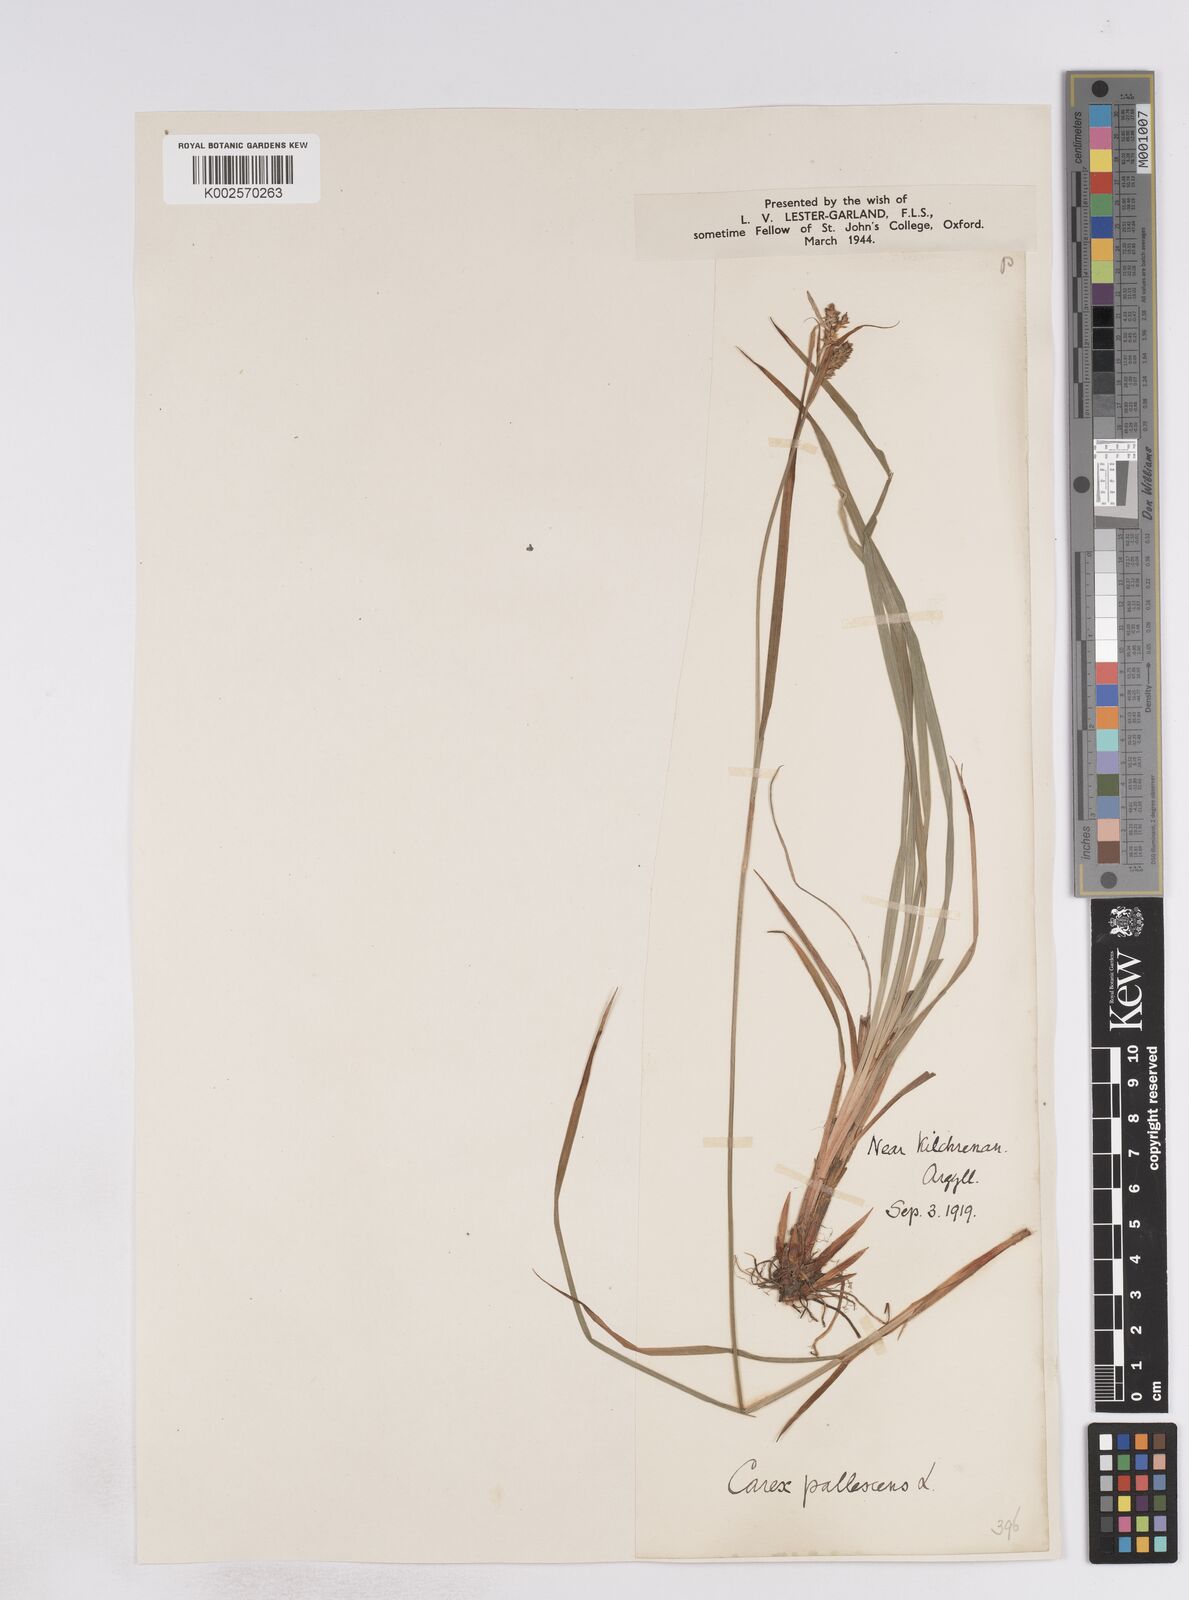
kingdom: Plantae
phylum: Tracheophyta
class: Liliopsida
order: Poales
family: Cyperaceae
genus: Carex
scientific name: Carex pallescens
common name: Pale sedge
